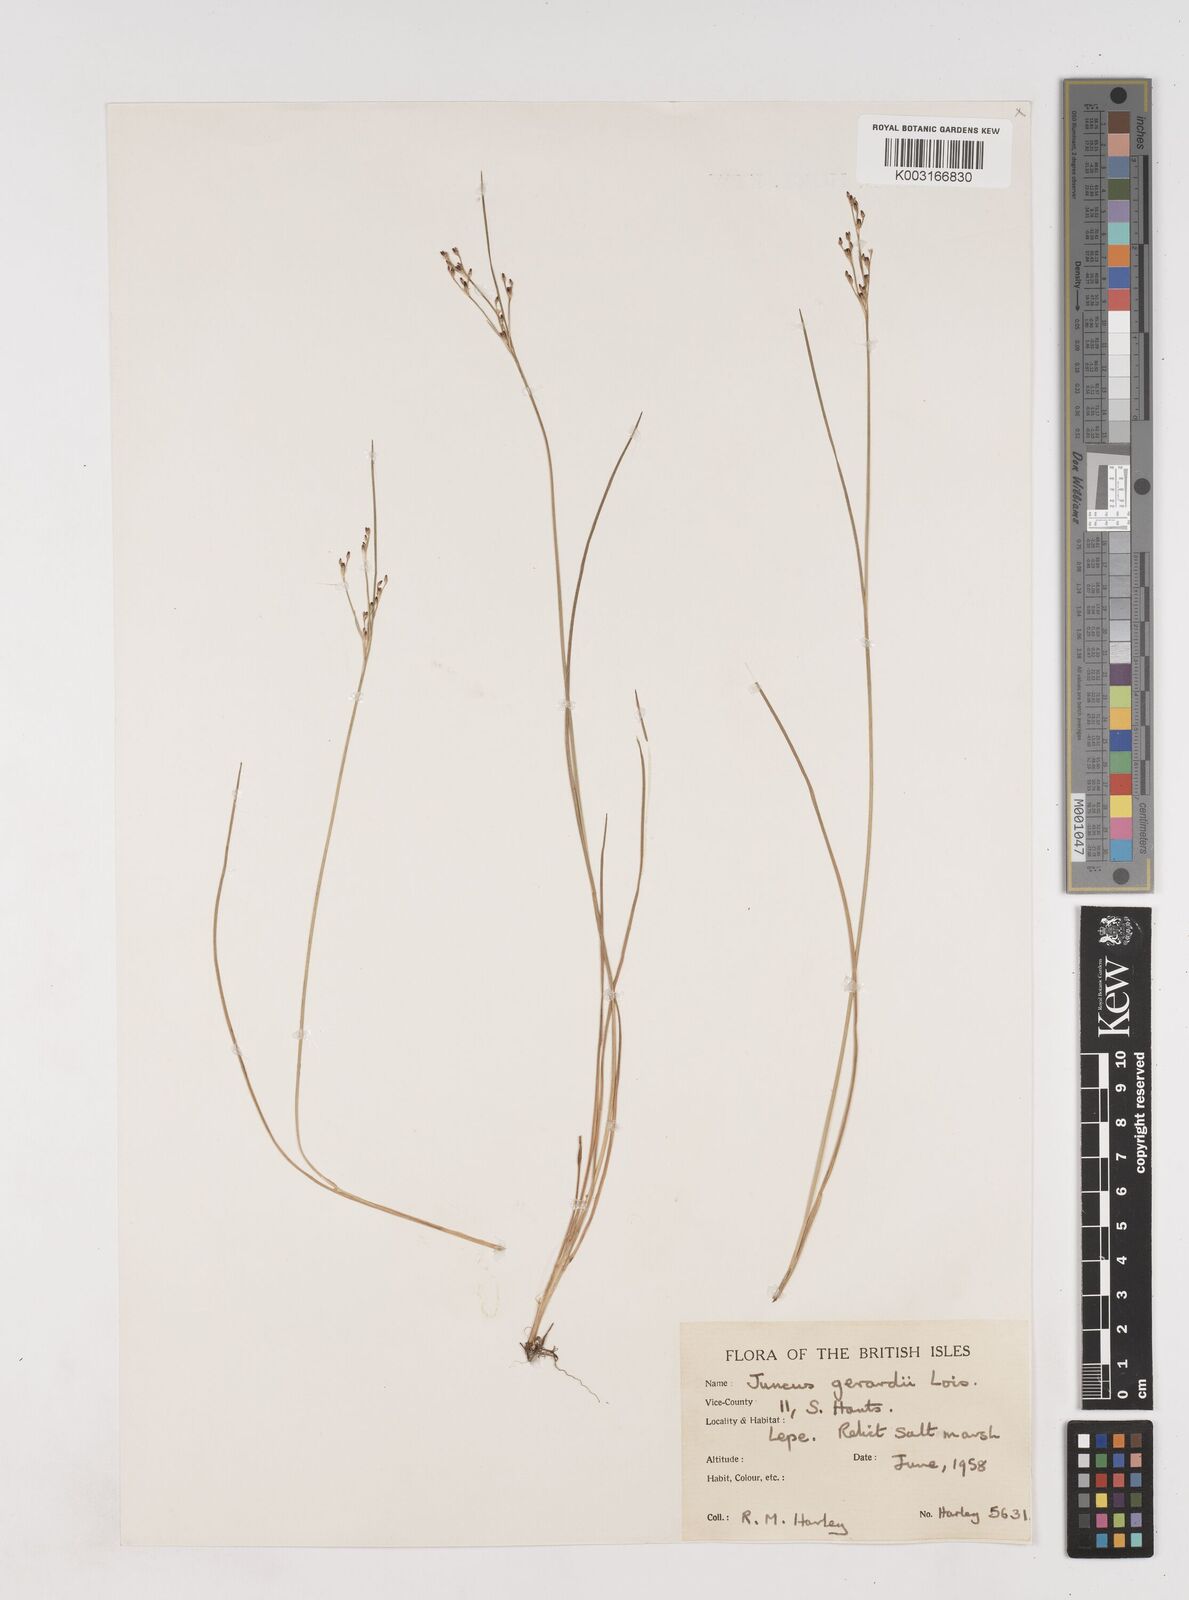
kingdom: Plantae
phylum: Tracheophyta
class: Liliopsida
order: Poales
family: Juncaceae
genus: Juncus
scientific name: Juncus gerardi
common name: Saltmarsh rush
